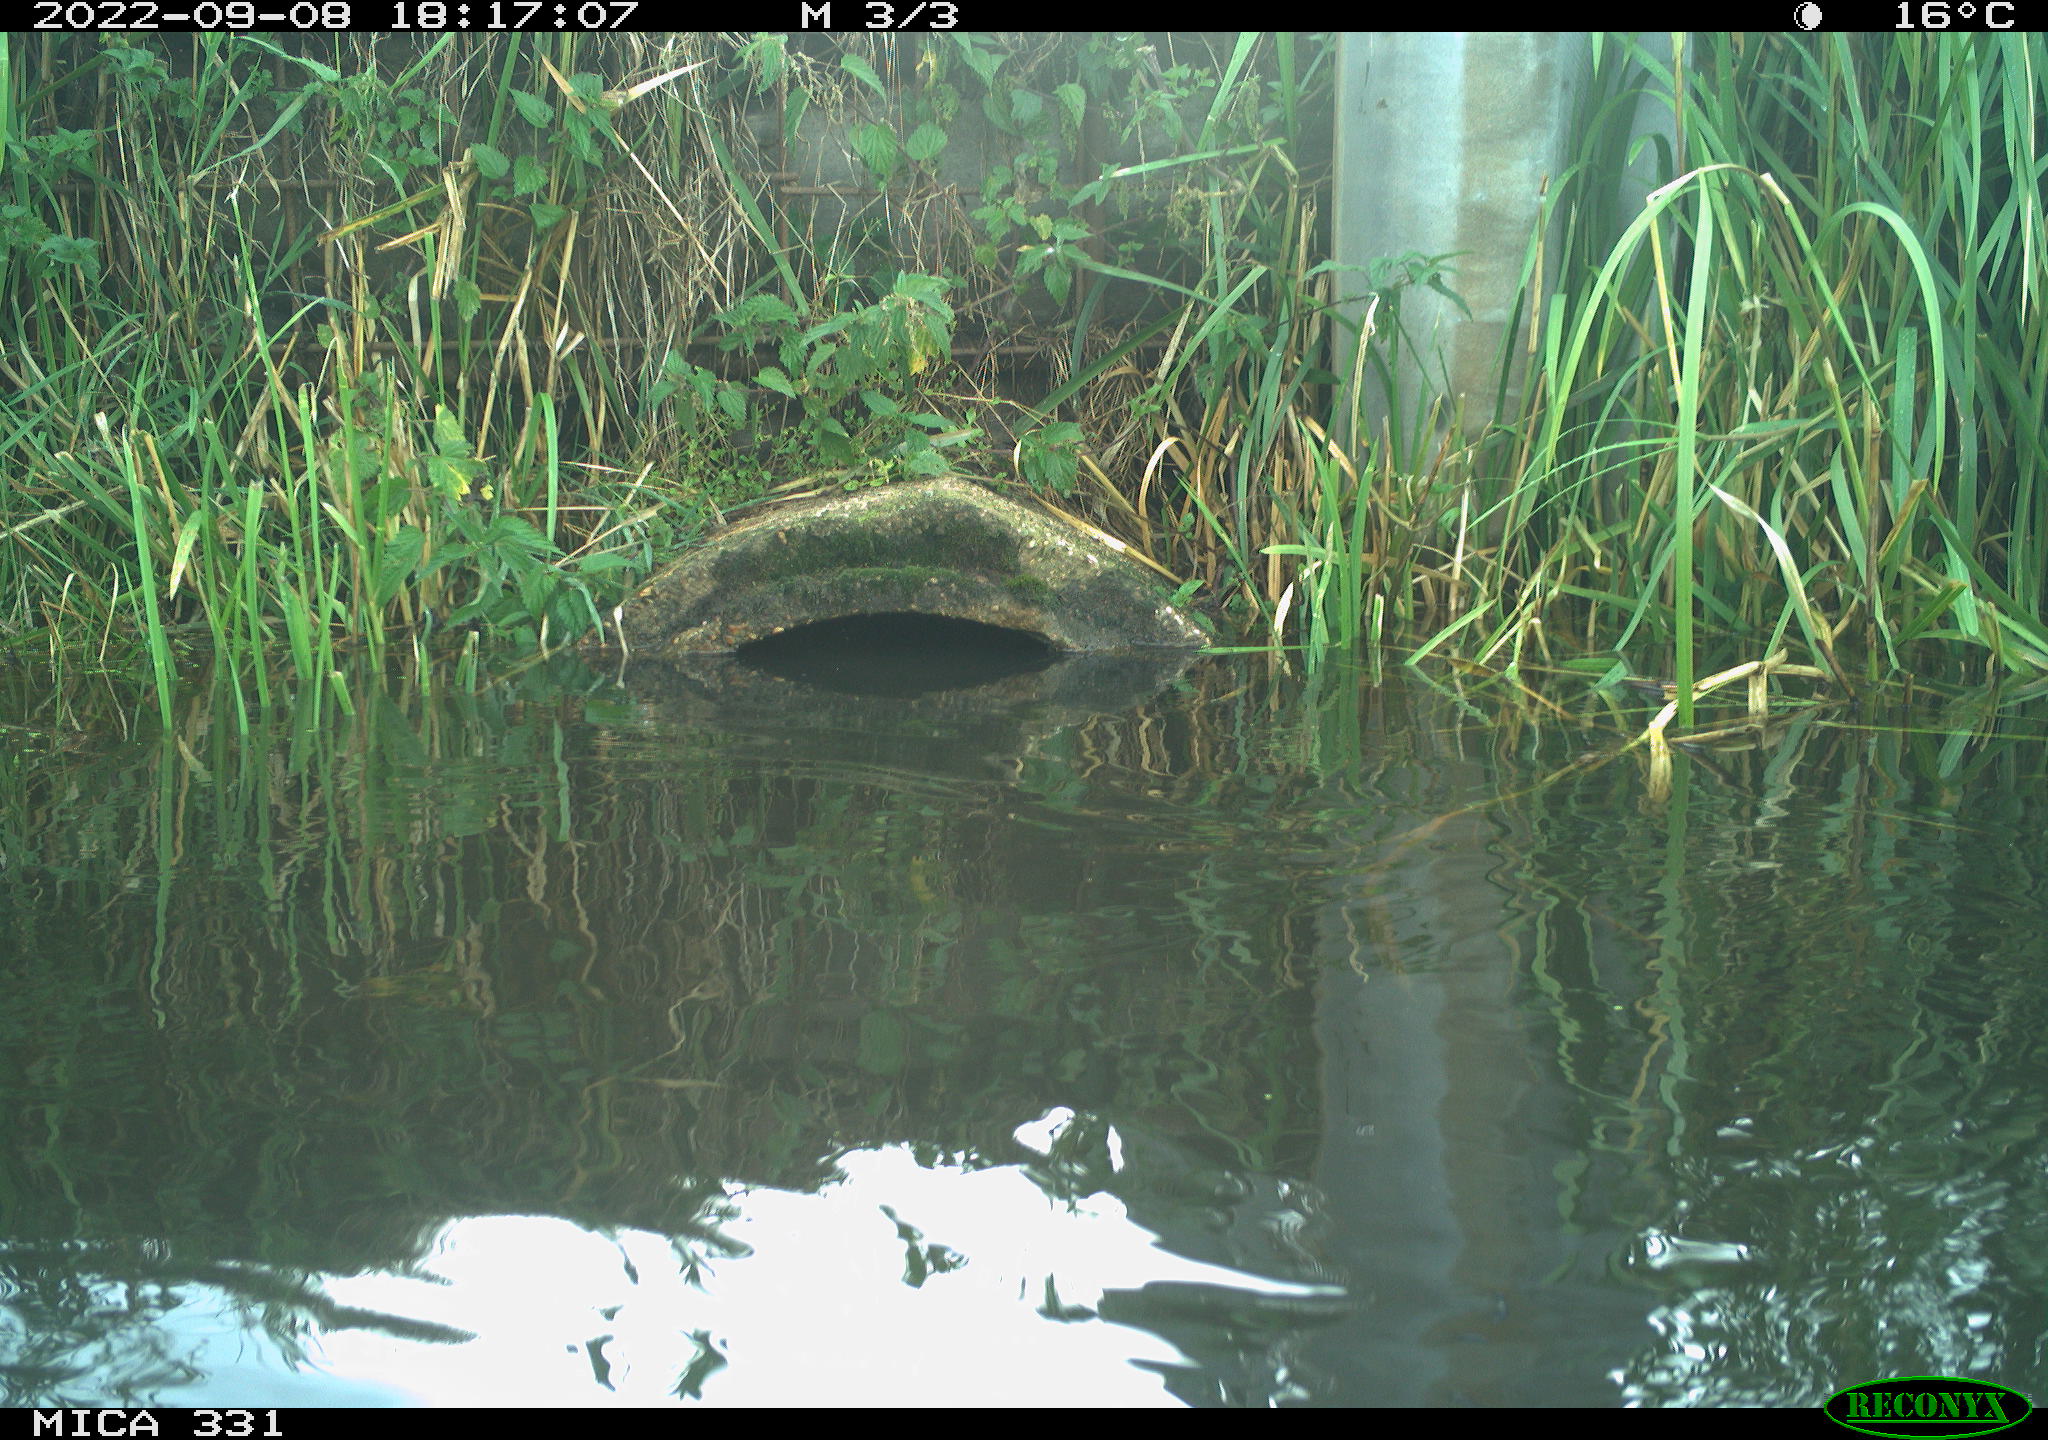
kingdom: Animalia
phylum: Chordata
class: Aves
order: Gruiformes
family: Rallidae
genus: Gallinula
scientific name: Gallinula chloropus
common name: Common moorhen
